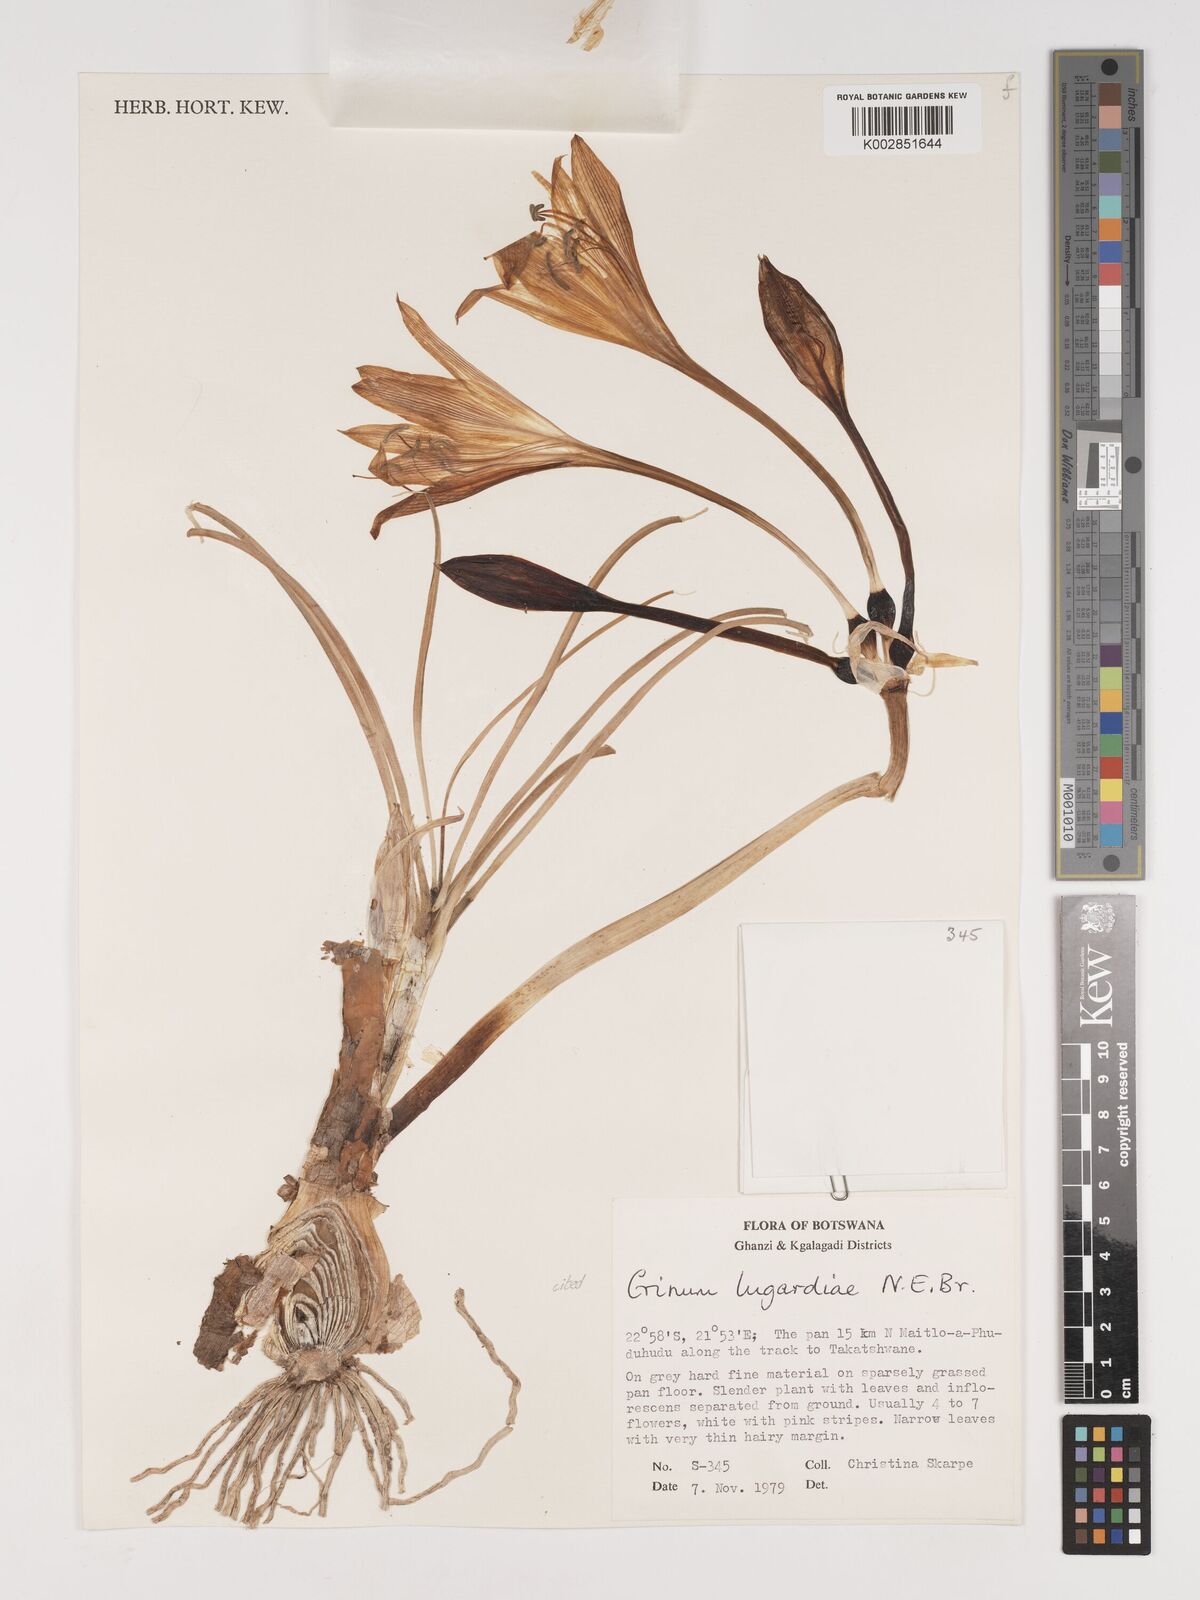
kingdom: Plantae
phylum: Tracheophyta
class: Liliopsida
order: Asparagales
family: Amaryllidaceae
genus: Crinum
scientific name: Crinum lugardiae
